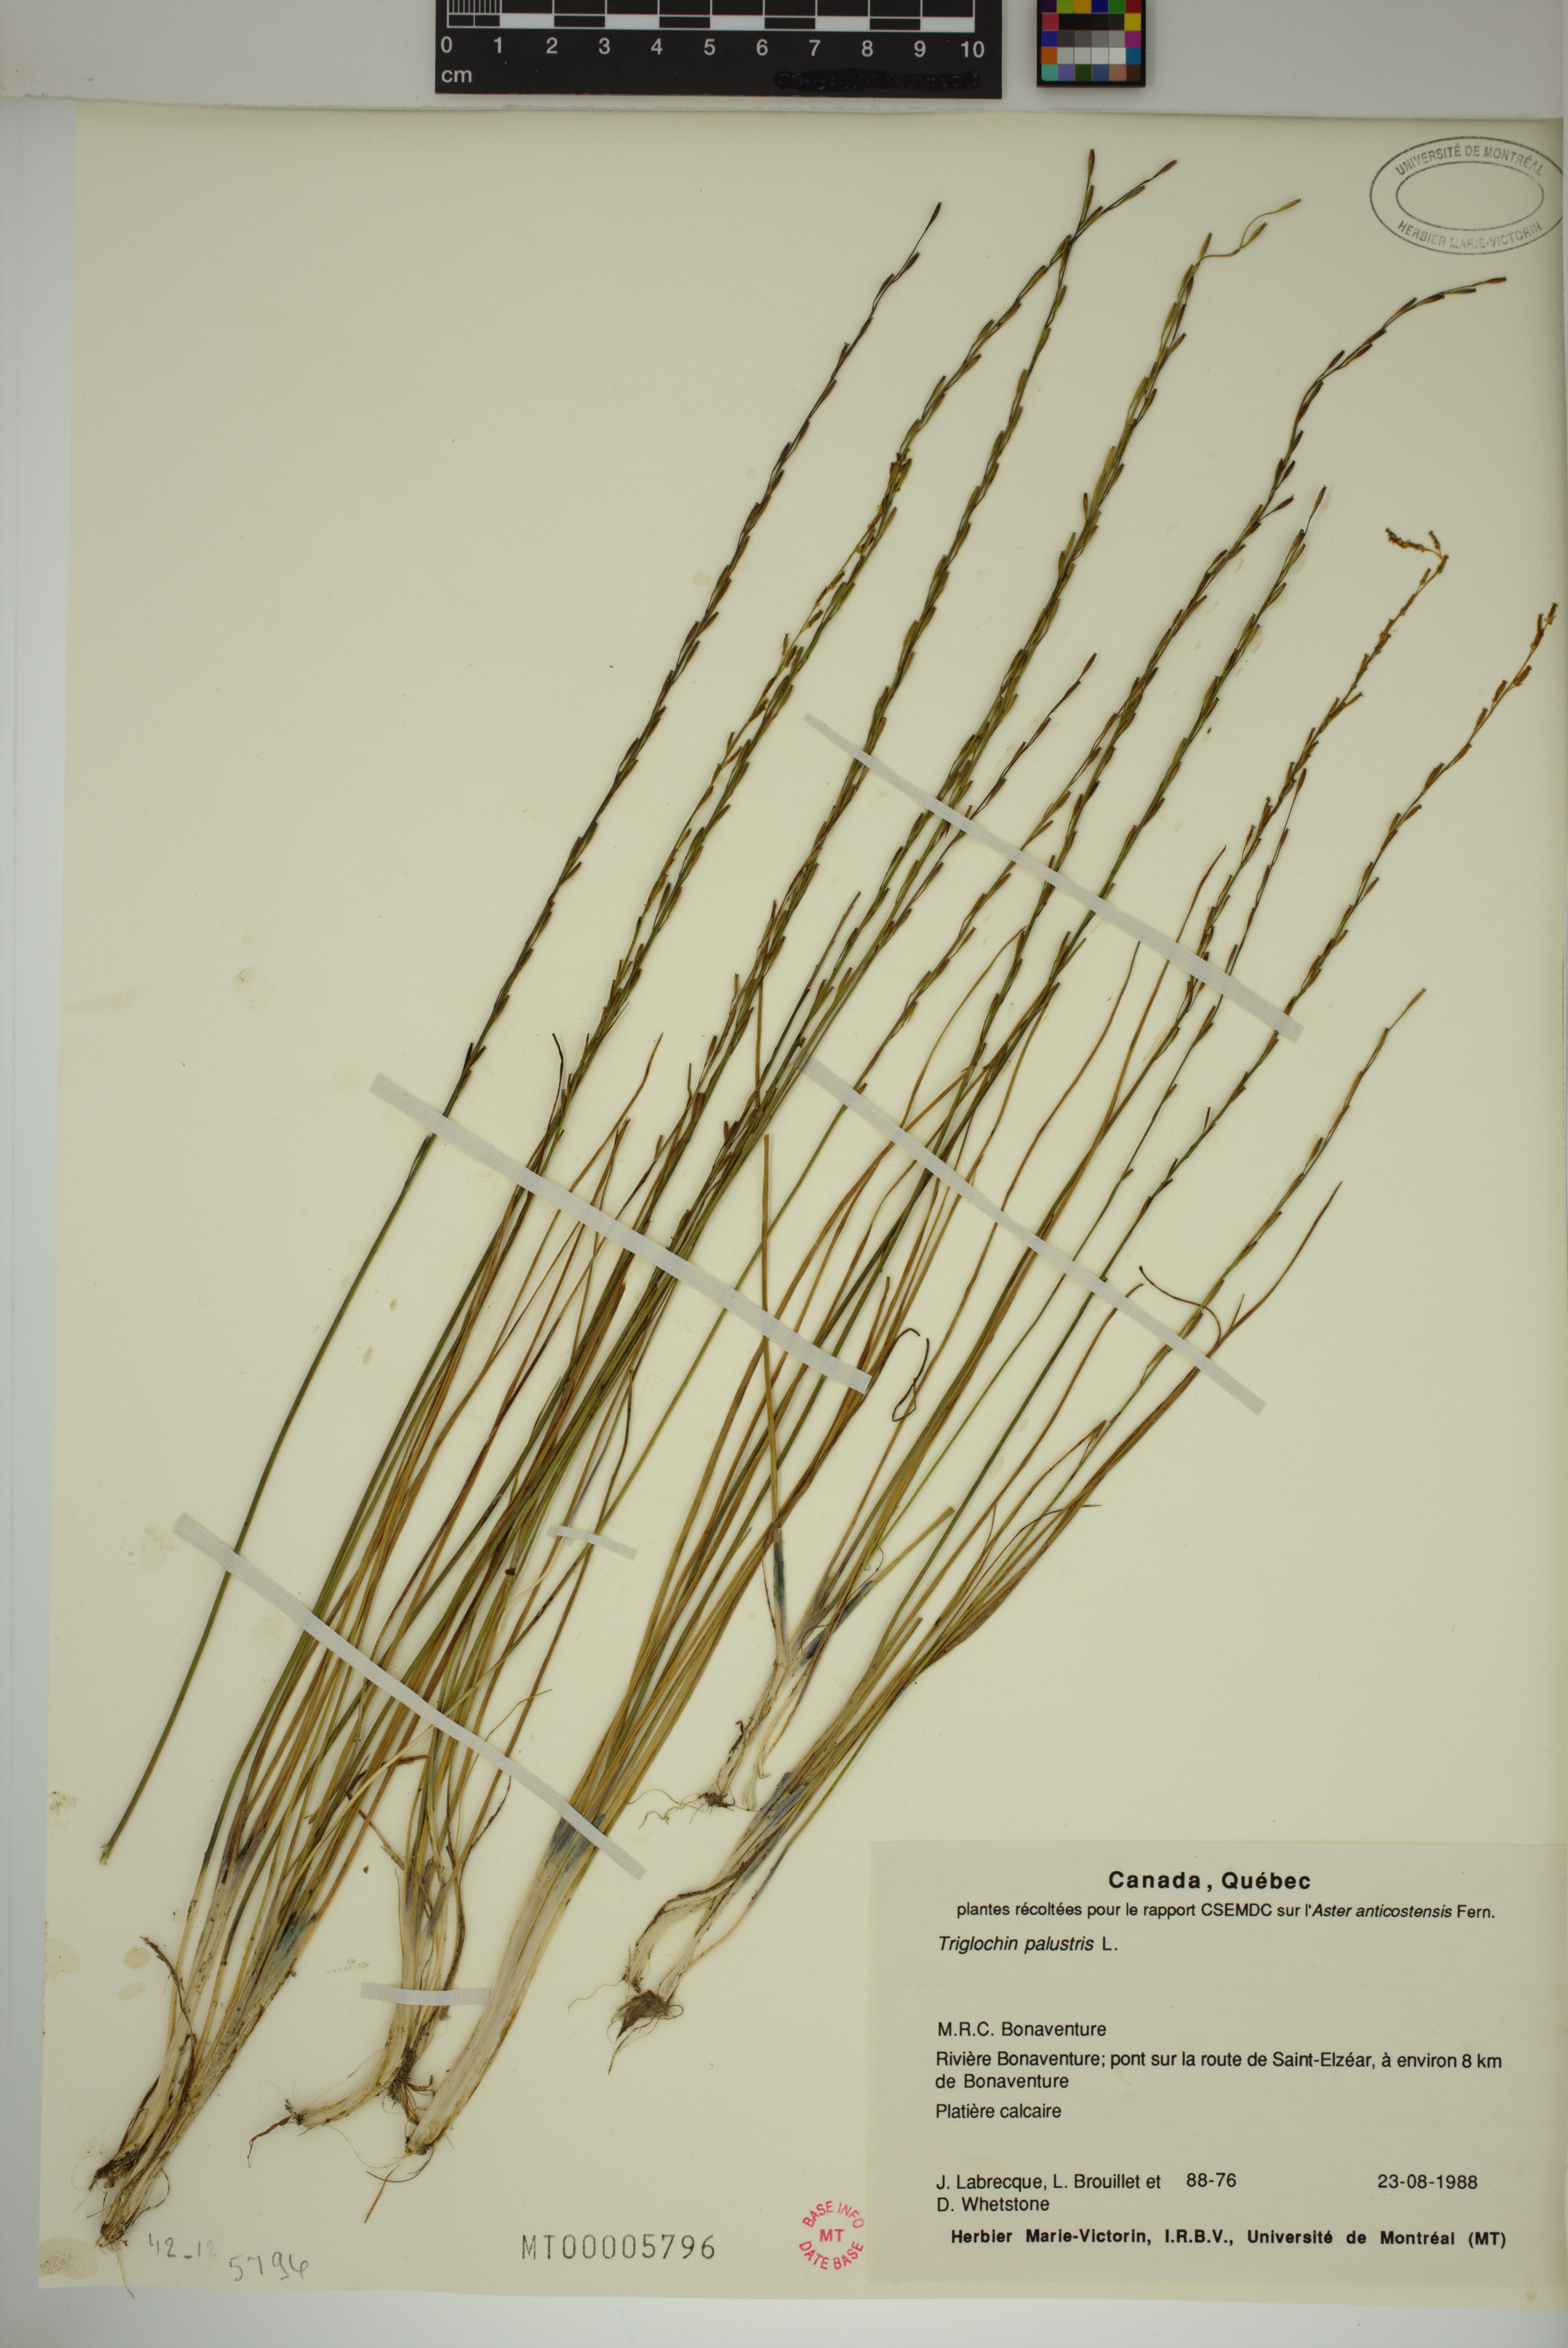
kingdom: Plantae
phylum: Tracheophyta
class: Liliopsida
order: Alismatales
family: Juncaginaceae
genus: Triglochin
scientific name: Triglochin palustris
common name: Marsh arrowgrass
